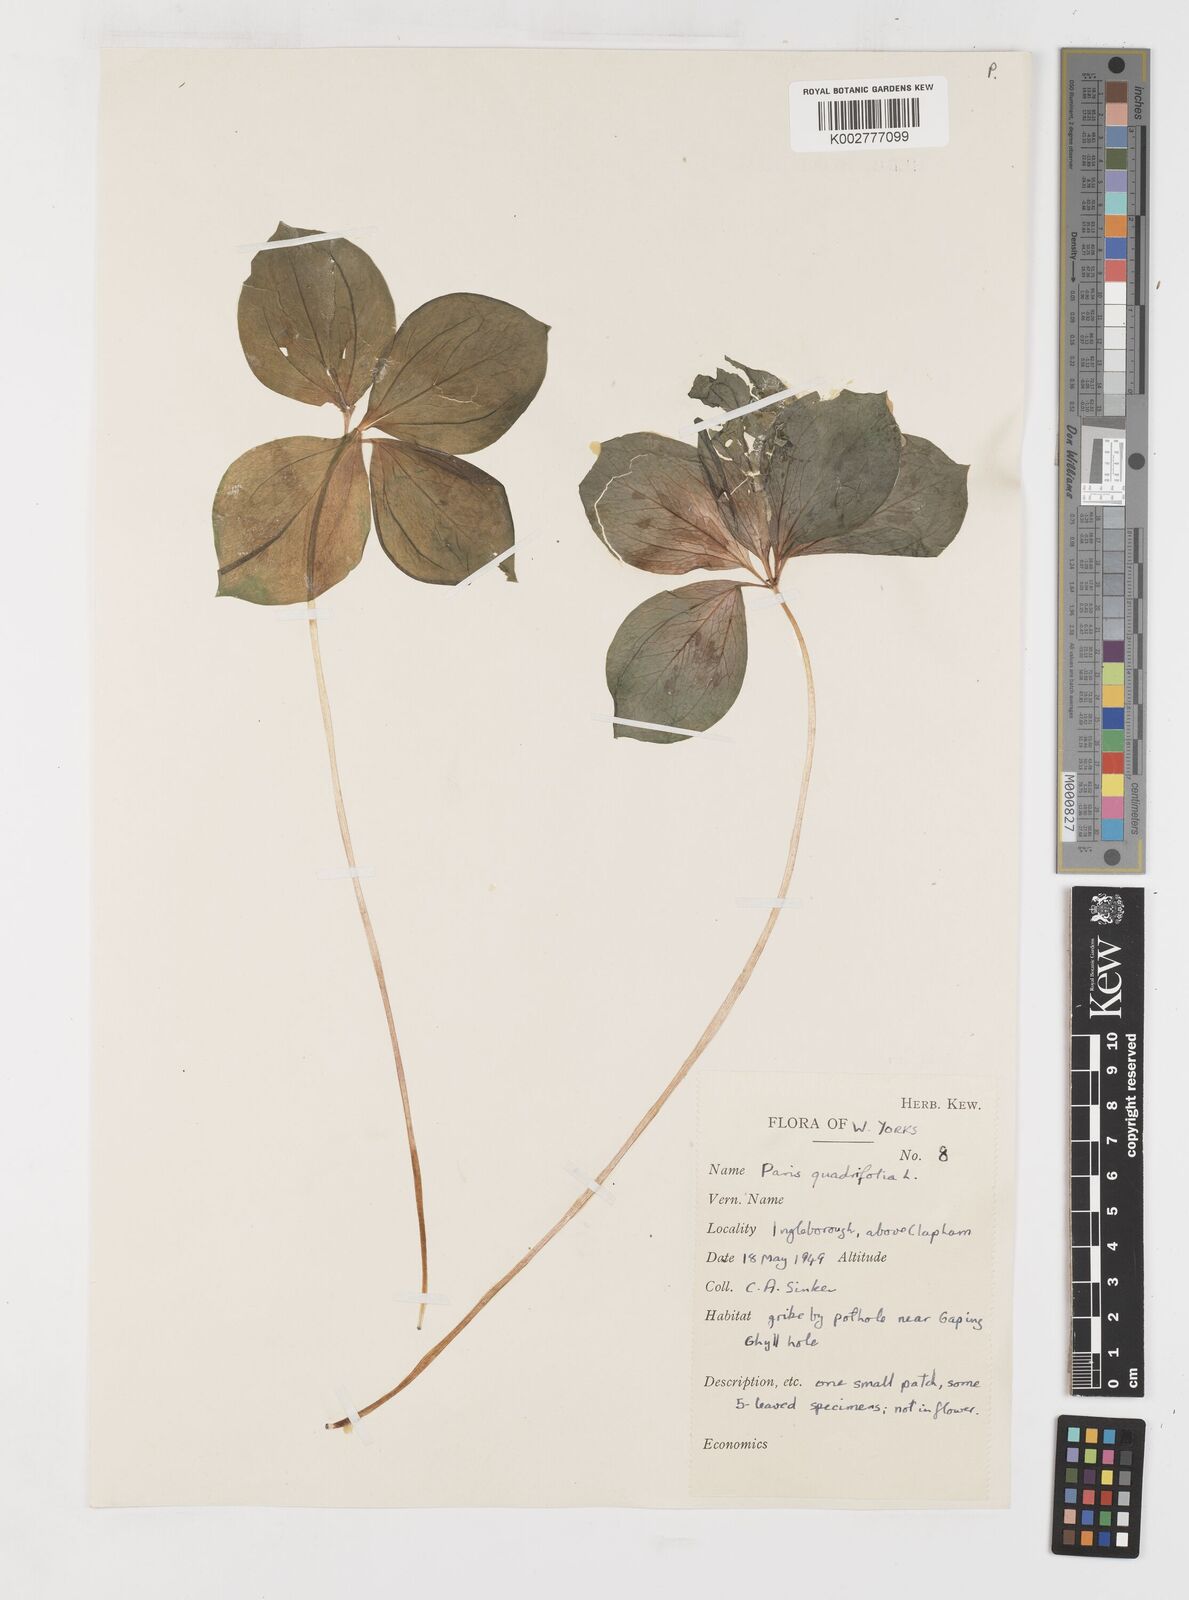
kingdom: Plantae
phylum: Tracheophyta
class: Liliopsida
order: Liliales
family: Melanthiaceae
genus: Paris
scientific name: Paris quadrifolia
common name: Herb-paris
